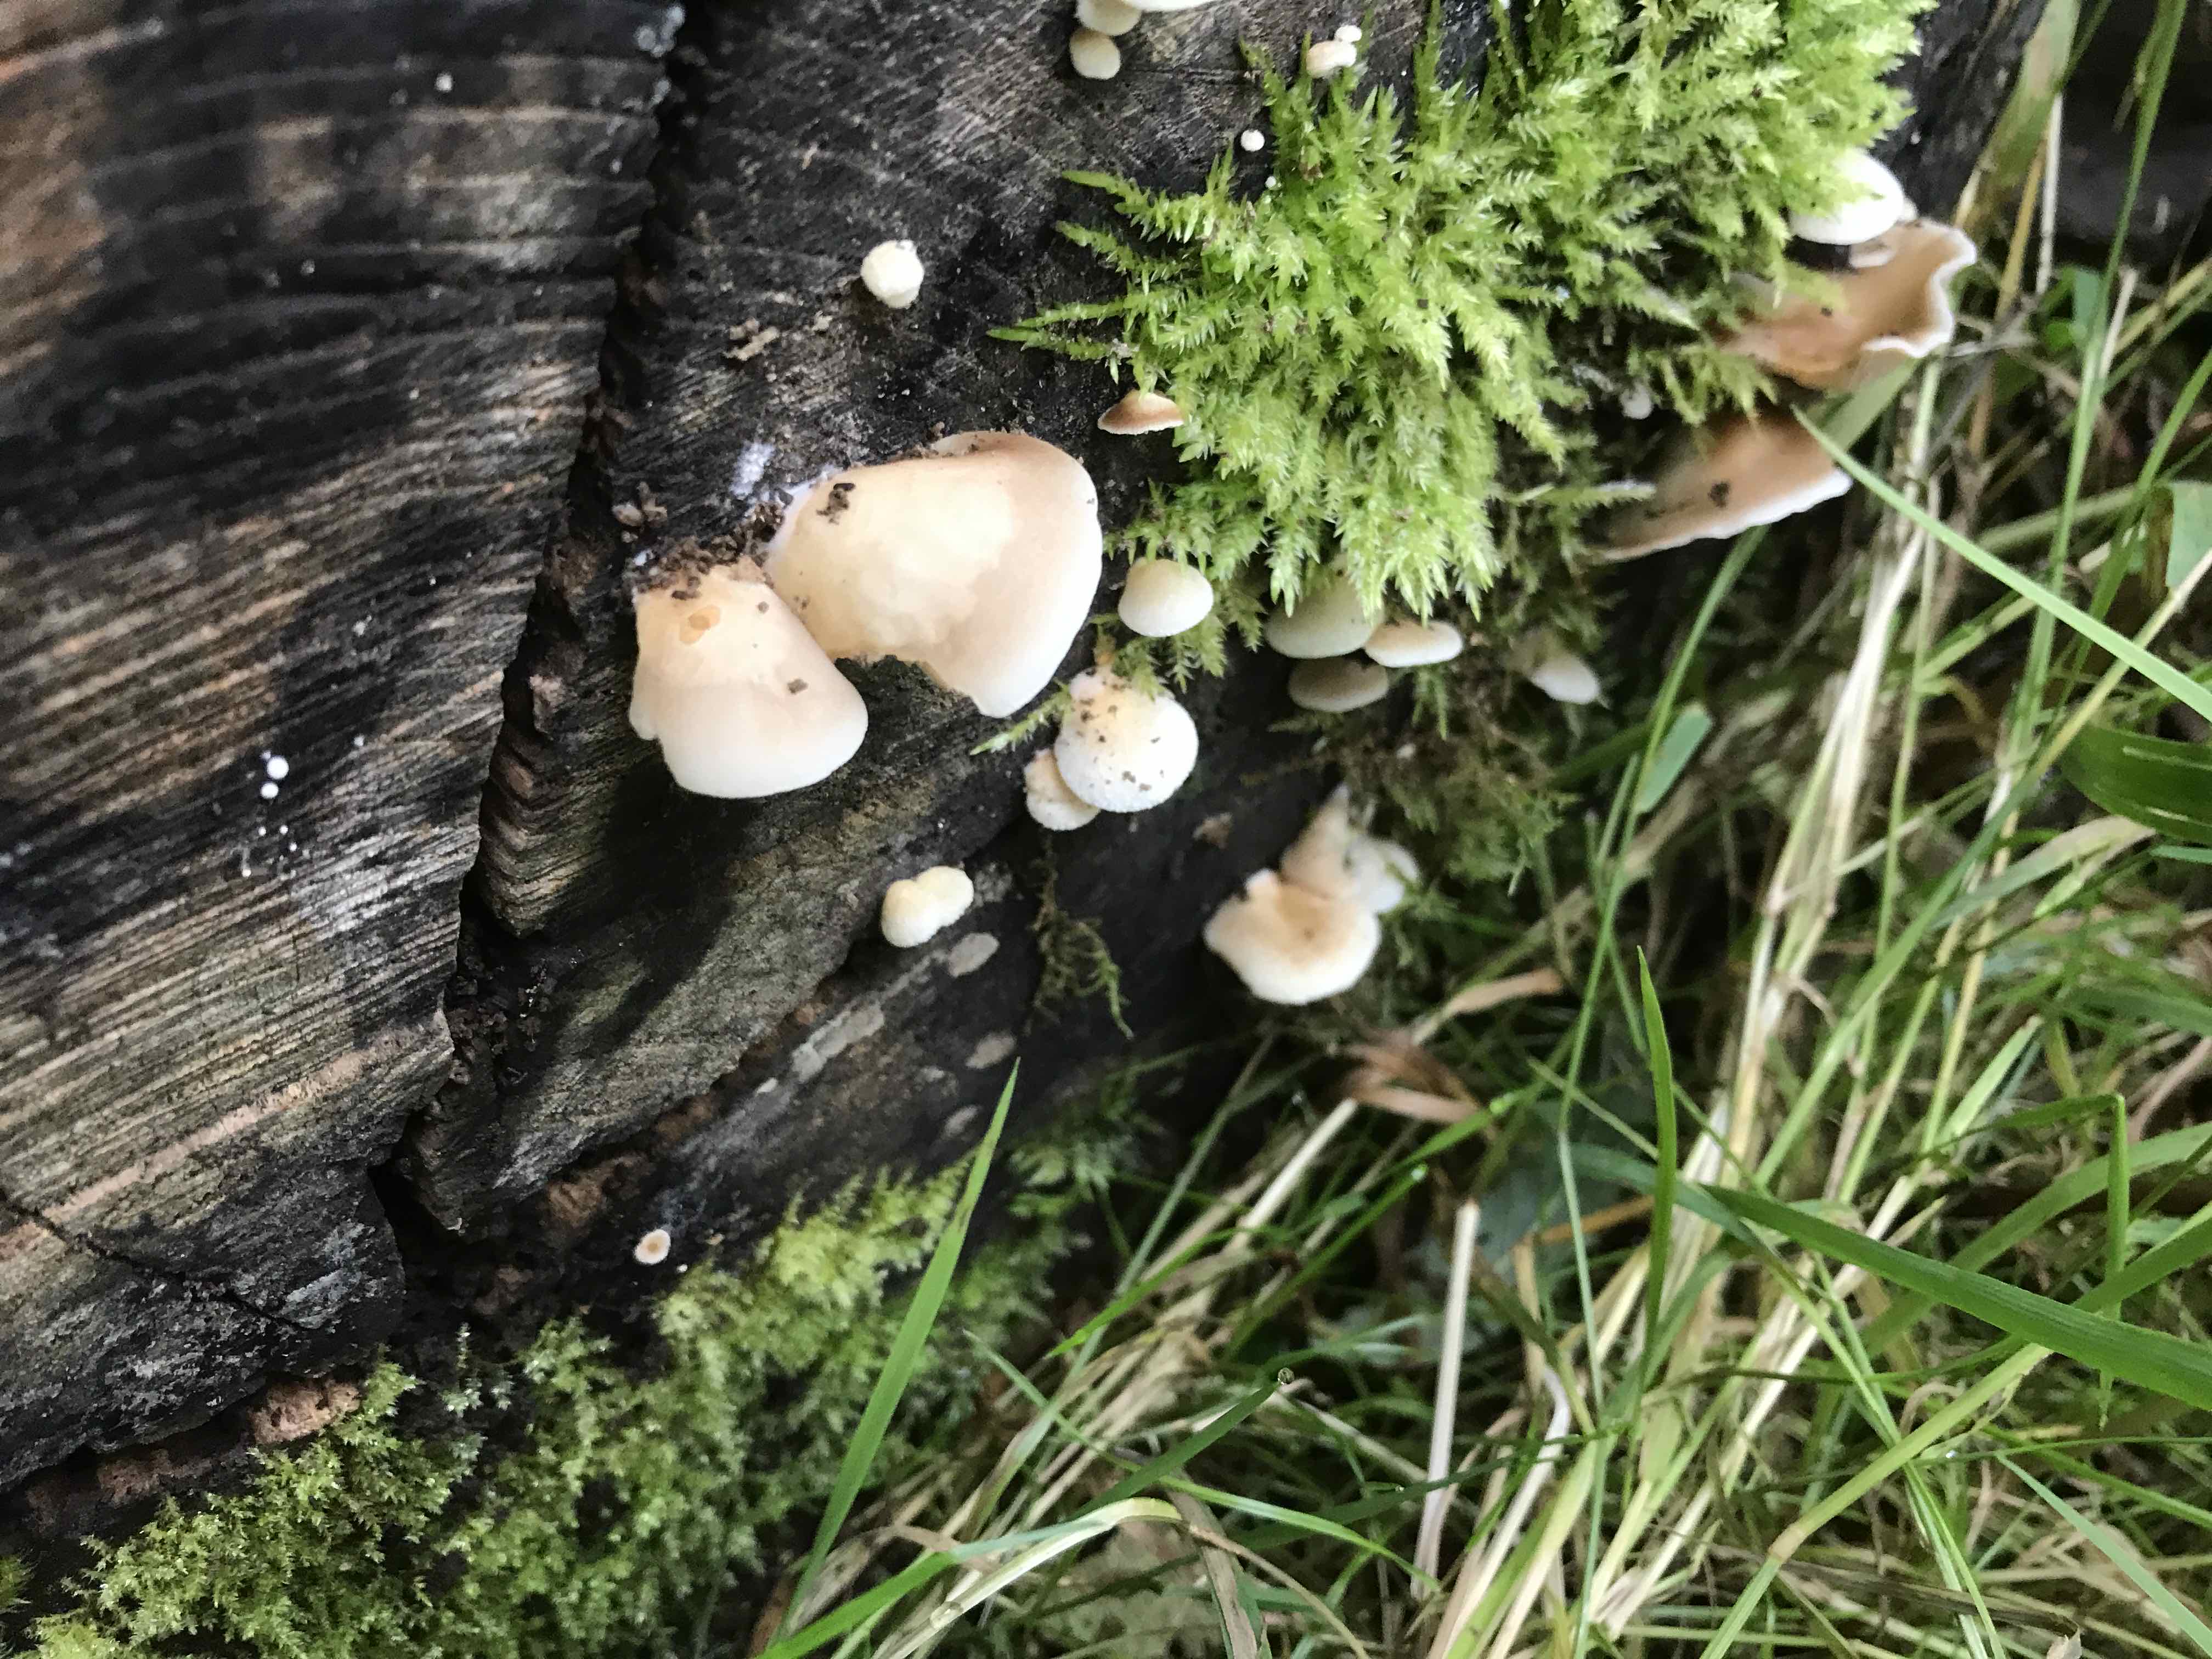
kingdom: Fungi
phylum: Basidiomycota
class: Agaricomycetes
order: Agaricales
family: Crepidotaceae
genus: Crepidotus
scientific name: Crepidotus mollis
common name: blød muslingesvamp
